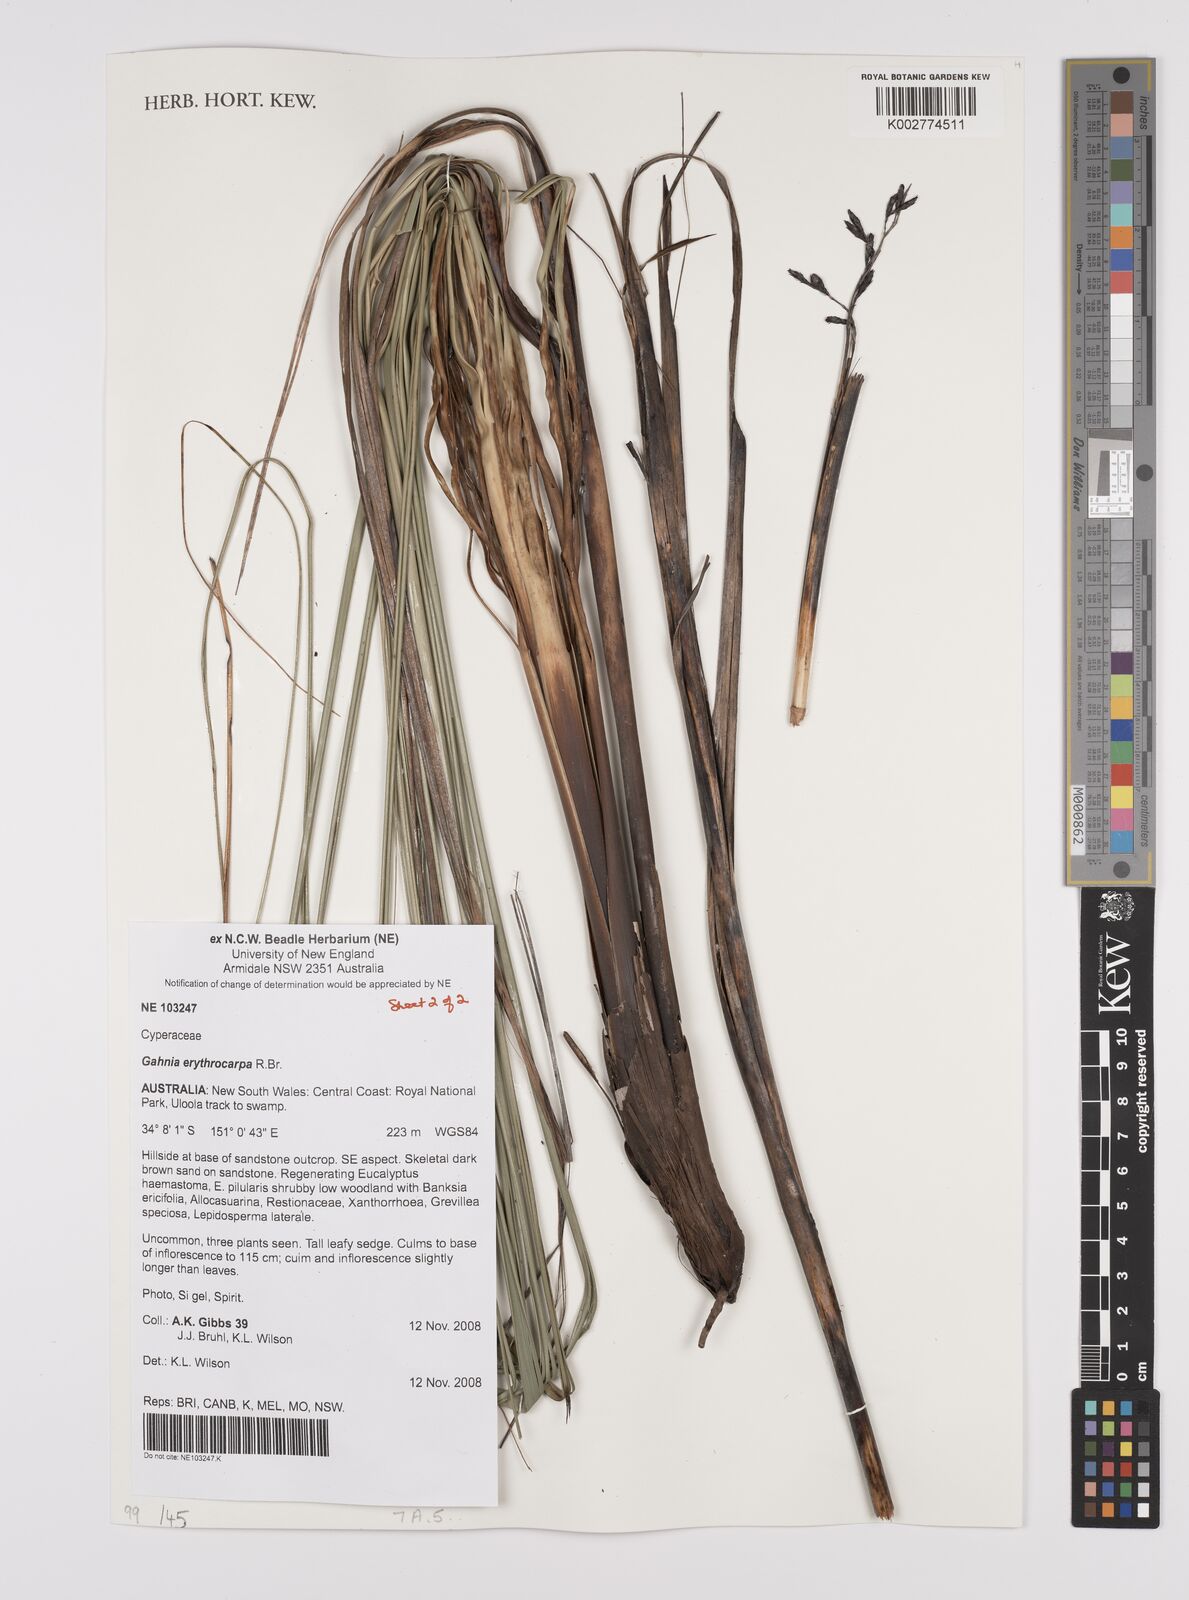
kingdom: Plantae
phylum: Tracheophyta
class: Liliopsida
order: Poales
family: Cyperaceae
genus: Gahnia
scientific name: Gahnia erythrocarpa
